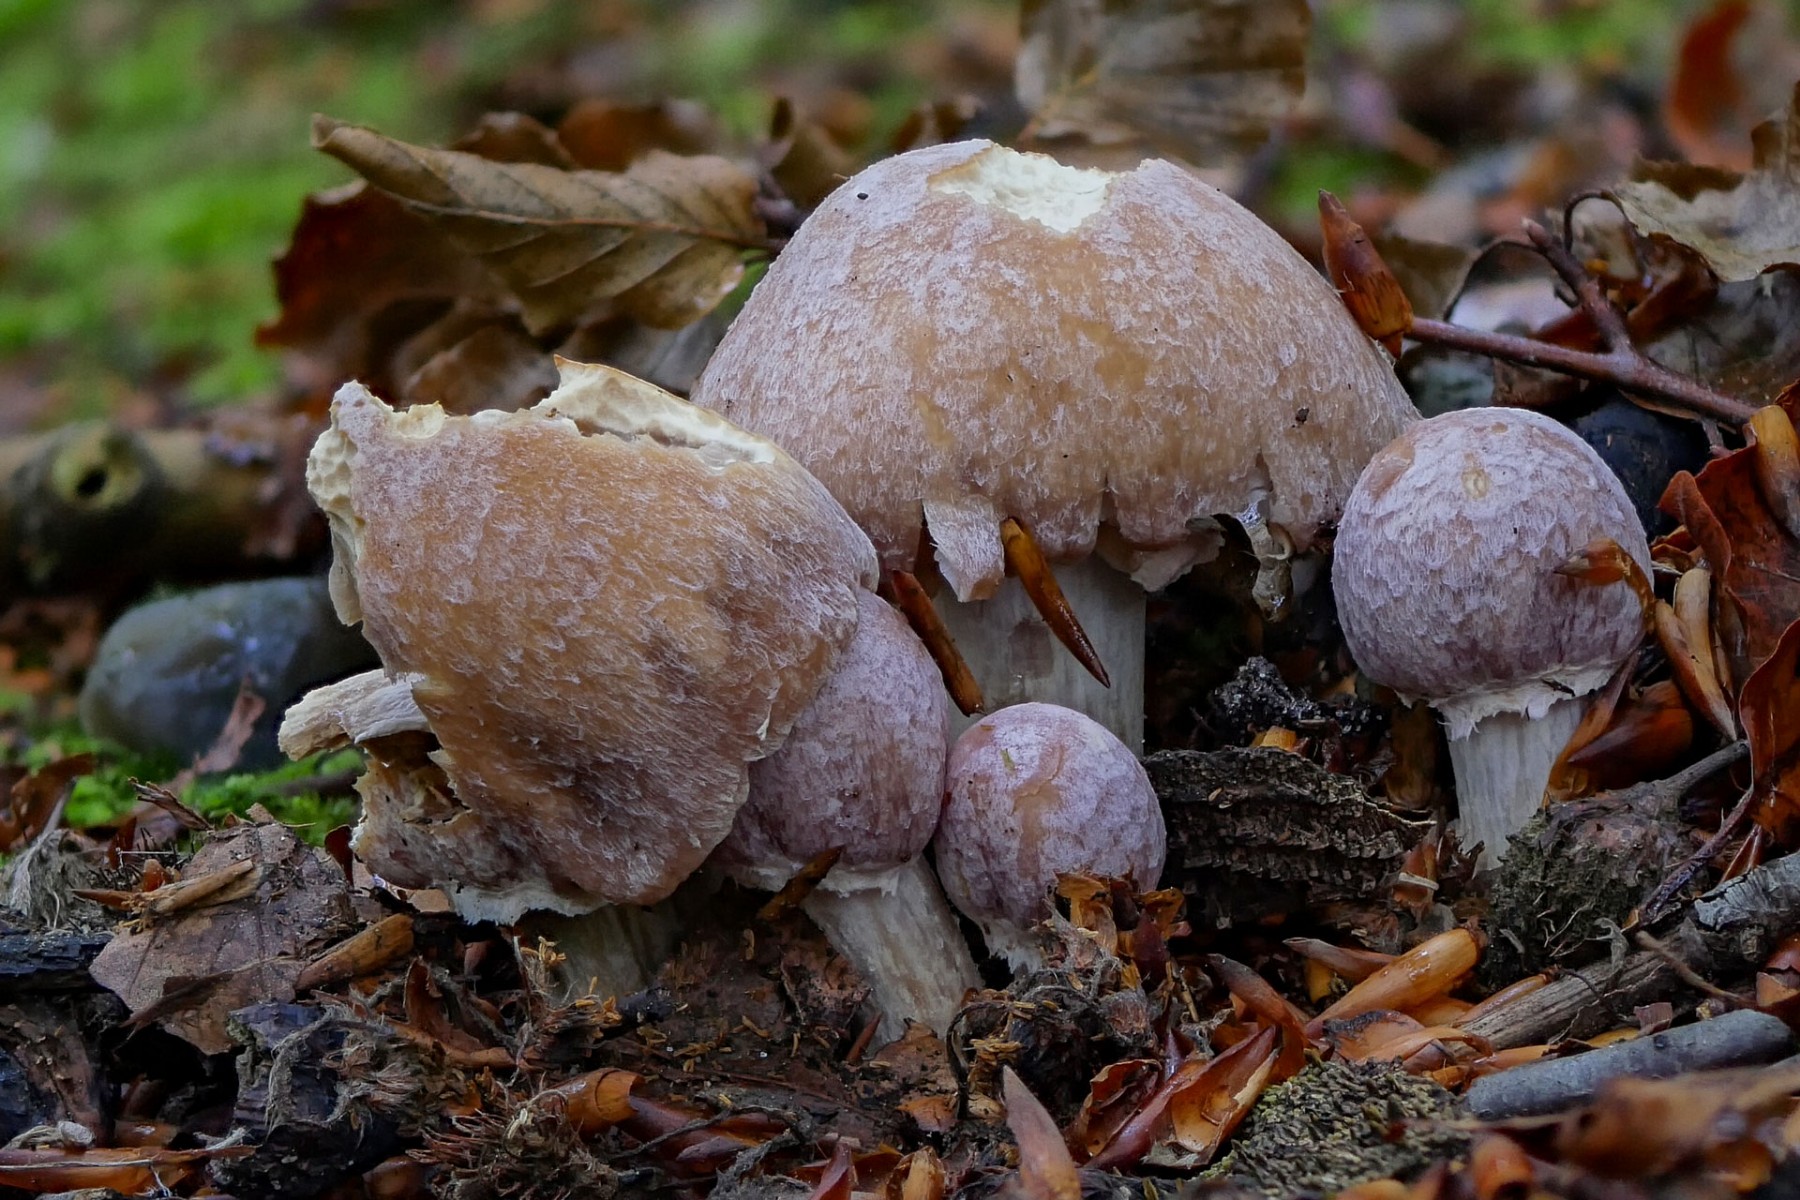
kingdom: Fungi
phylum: Basidiomycota
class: Agaricomycetes
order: Agaricales
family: Cortinariaceae
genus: Cortinarius
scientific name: Cortinarius caperatus
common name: klidhat
